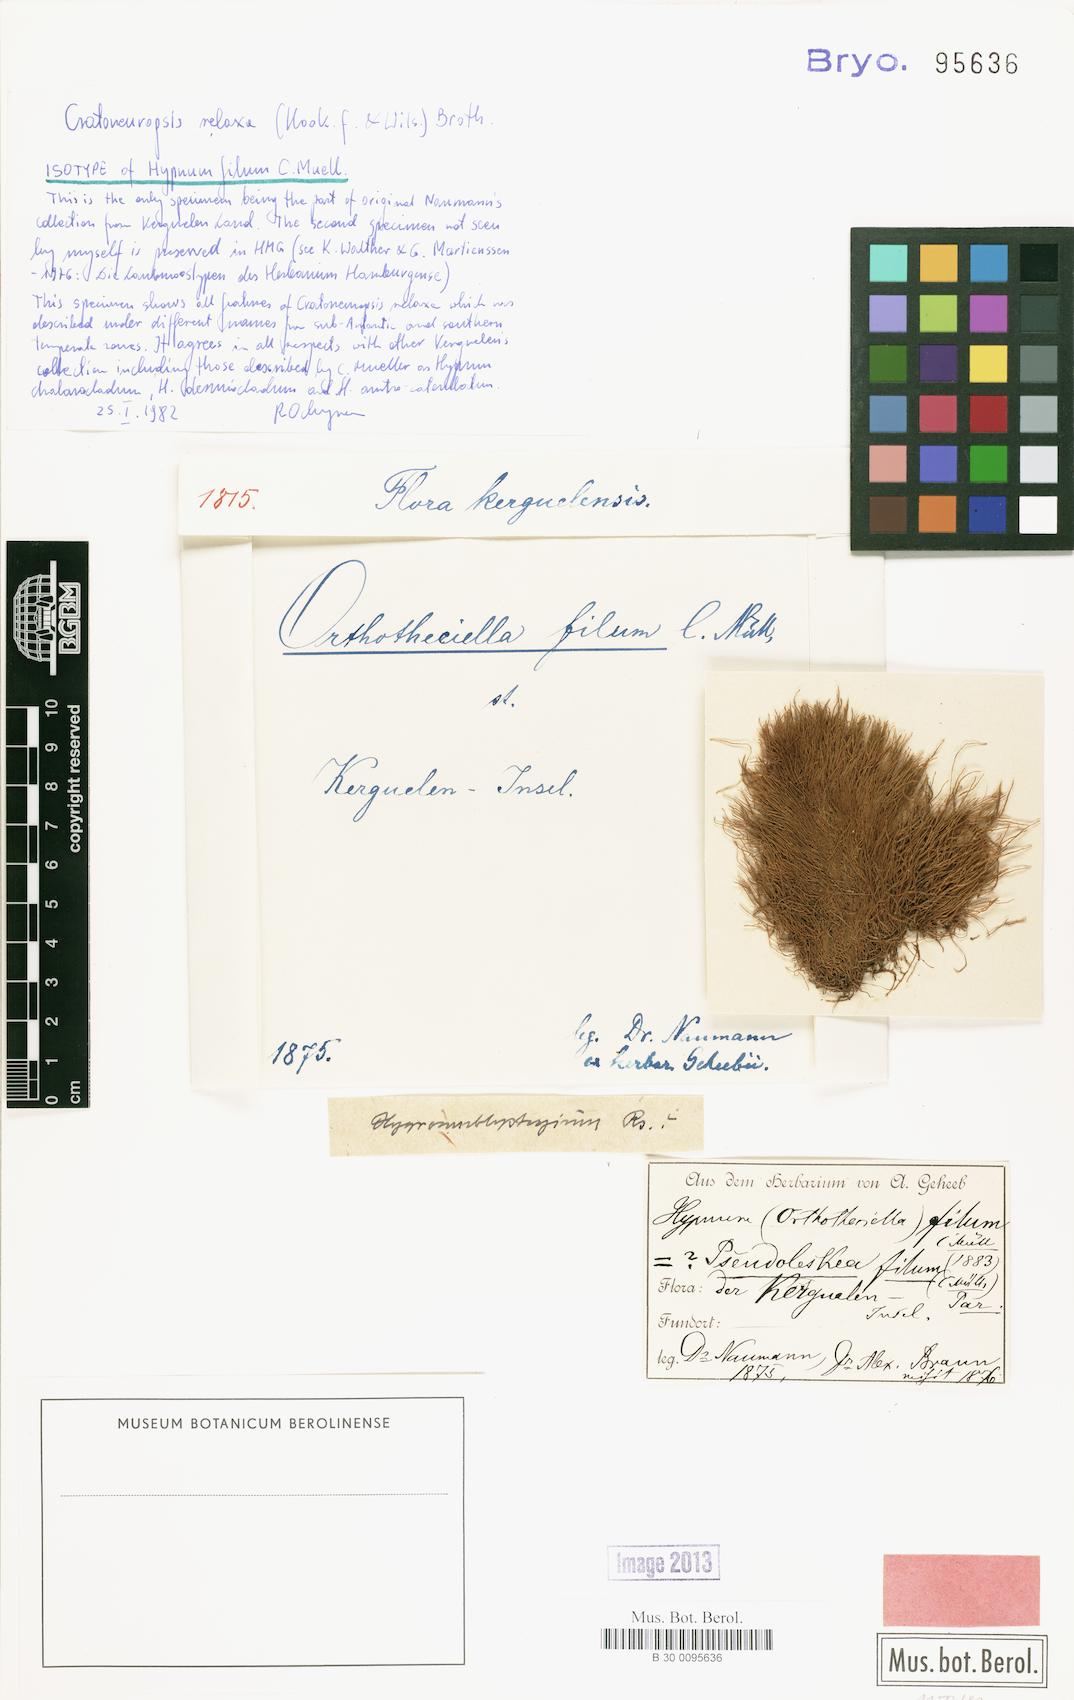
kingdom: Plantae
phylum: Bryophyta
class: Bryopsida
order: Hypnales
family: Amblystegiaceae
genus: Cratoneuropsis
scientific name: Cratoneuropsis relaxa
